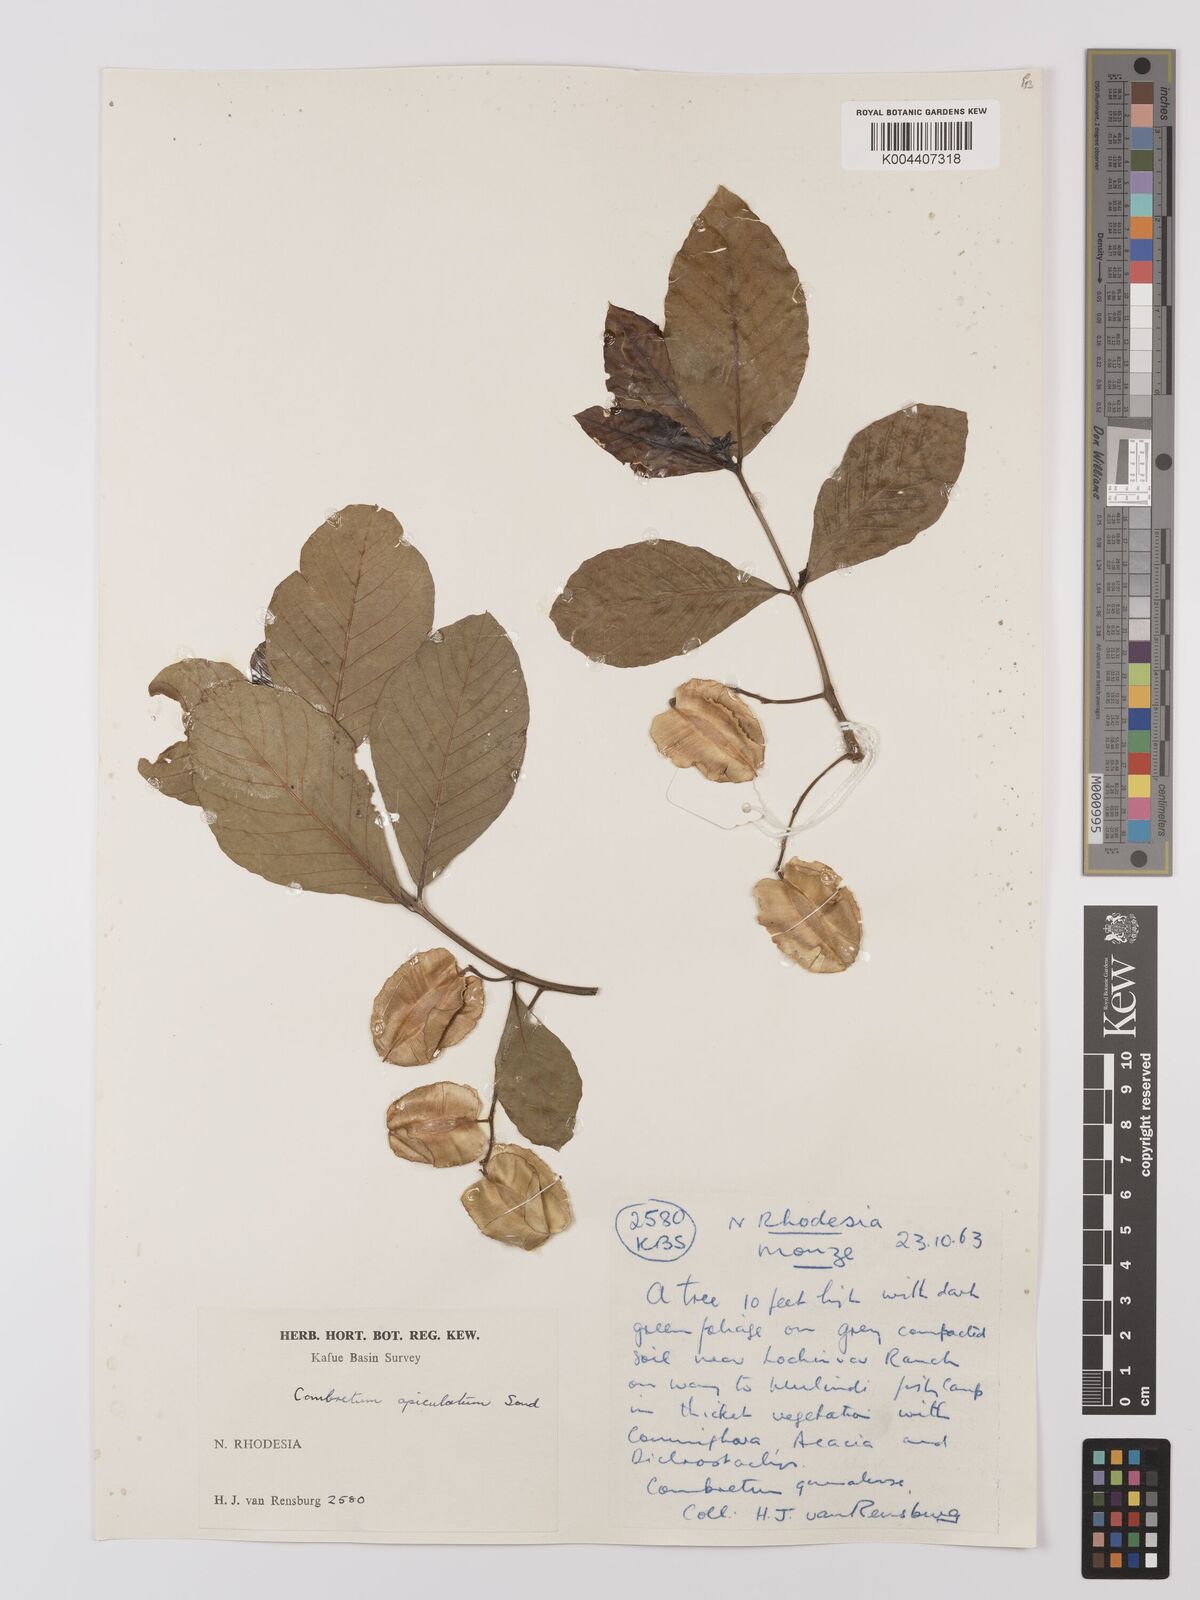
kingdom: Plantae
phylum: Tracheophyta
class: Magnoliopsida
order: Myrtales
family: Combretaceae
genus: Combretum
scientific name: Combretum apiculatum
